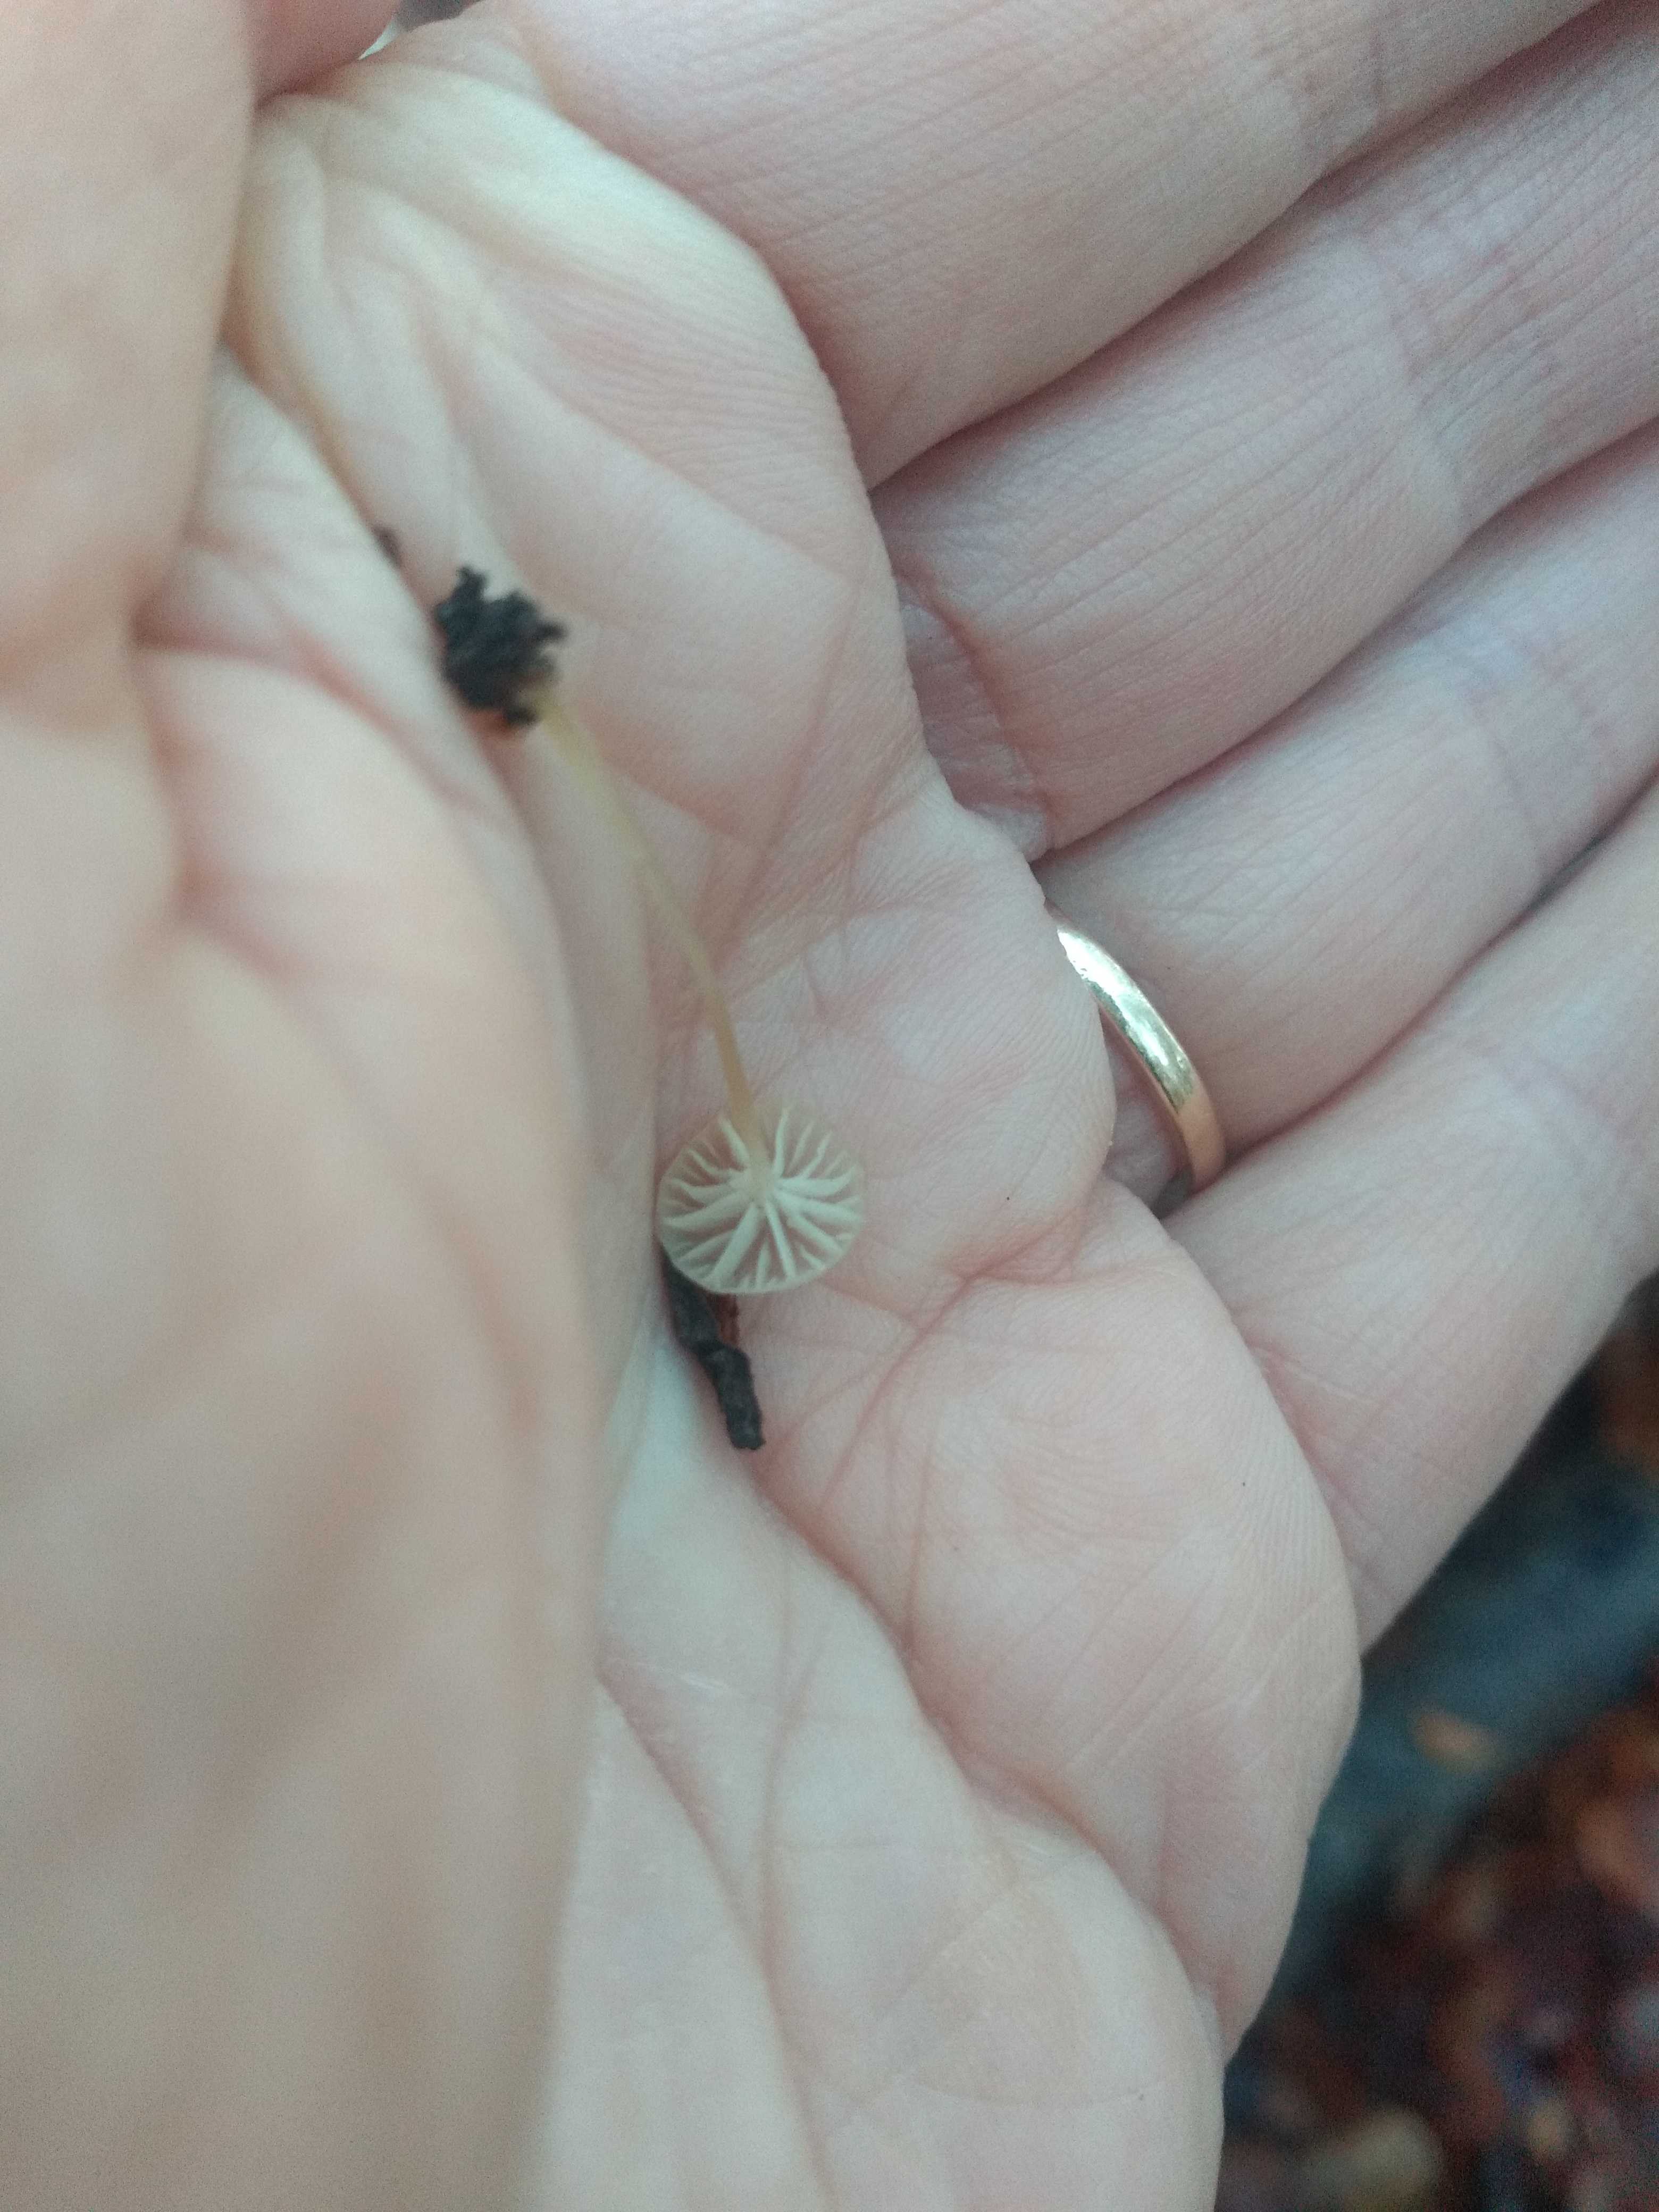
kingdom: Fungi
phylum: Basidiomycota
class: Agaricomycetes
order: Agaricales
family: Porotheleaceae
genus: Phloeomana
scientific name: Phloeomana speirea
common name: kvist-huesvamp
